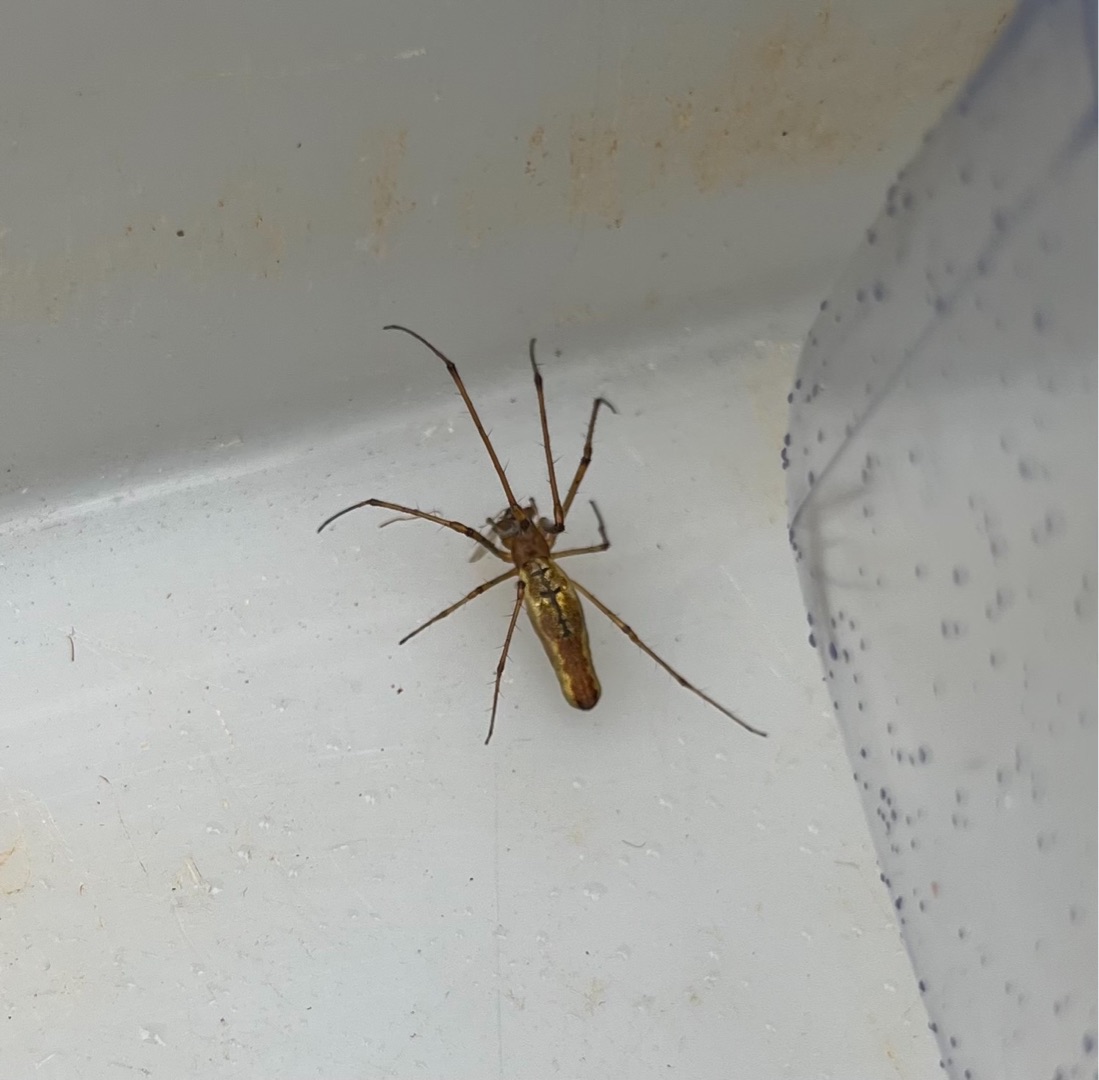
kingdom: Animalia
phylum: Arthropoda
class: Arachnida
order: Araneae
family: Tetragnathidae
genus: Tetragnatha
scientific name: Tetragnatha
